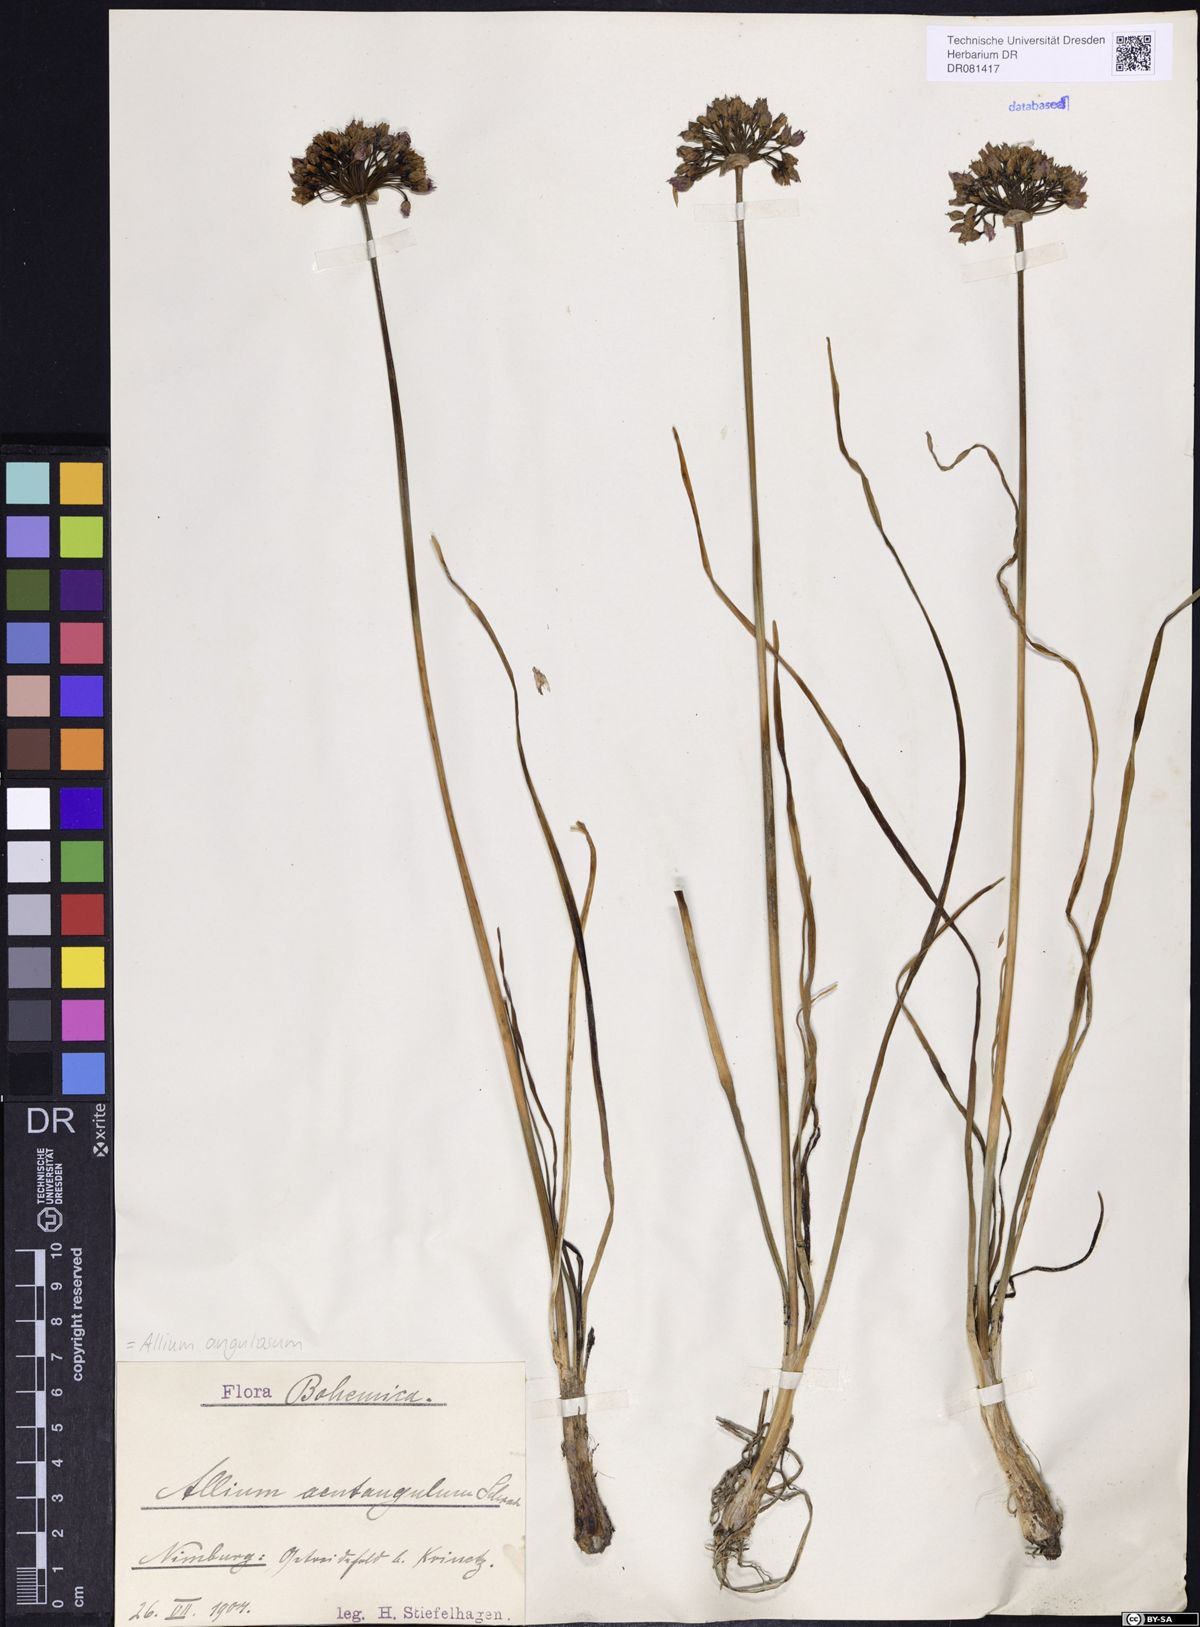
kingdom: Plantae
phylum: Tracheophyta
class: Liliopsida
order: Asparagales
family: Amaryllidaceae
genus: Allium
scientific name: Allium angulosum
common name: Mouse garlic
